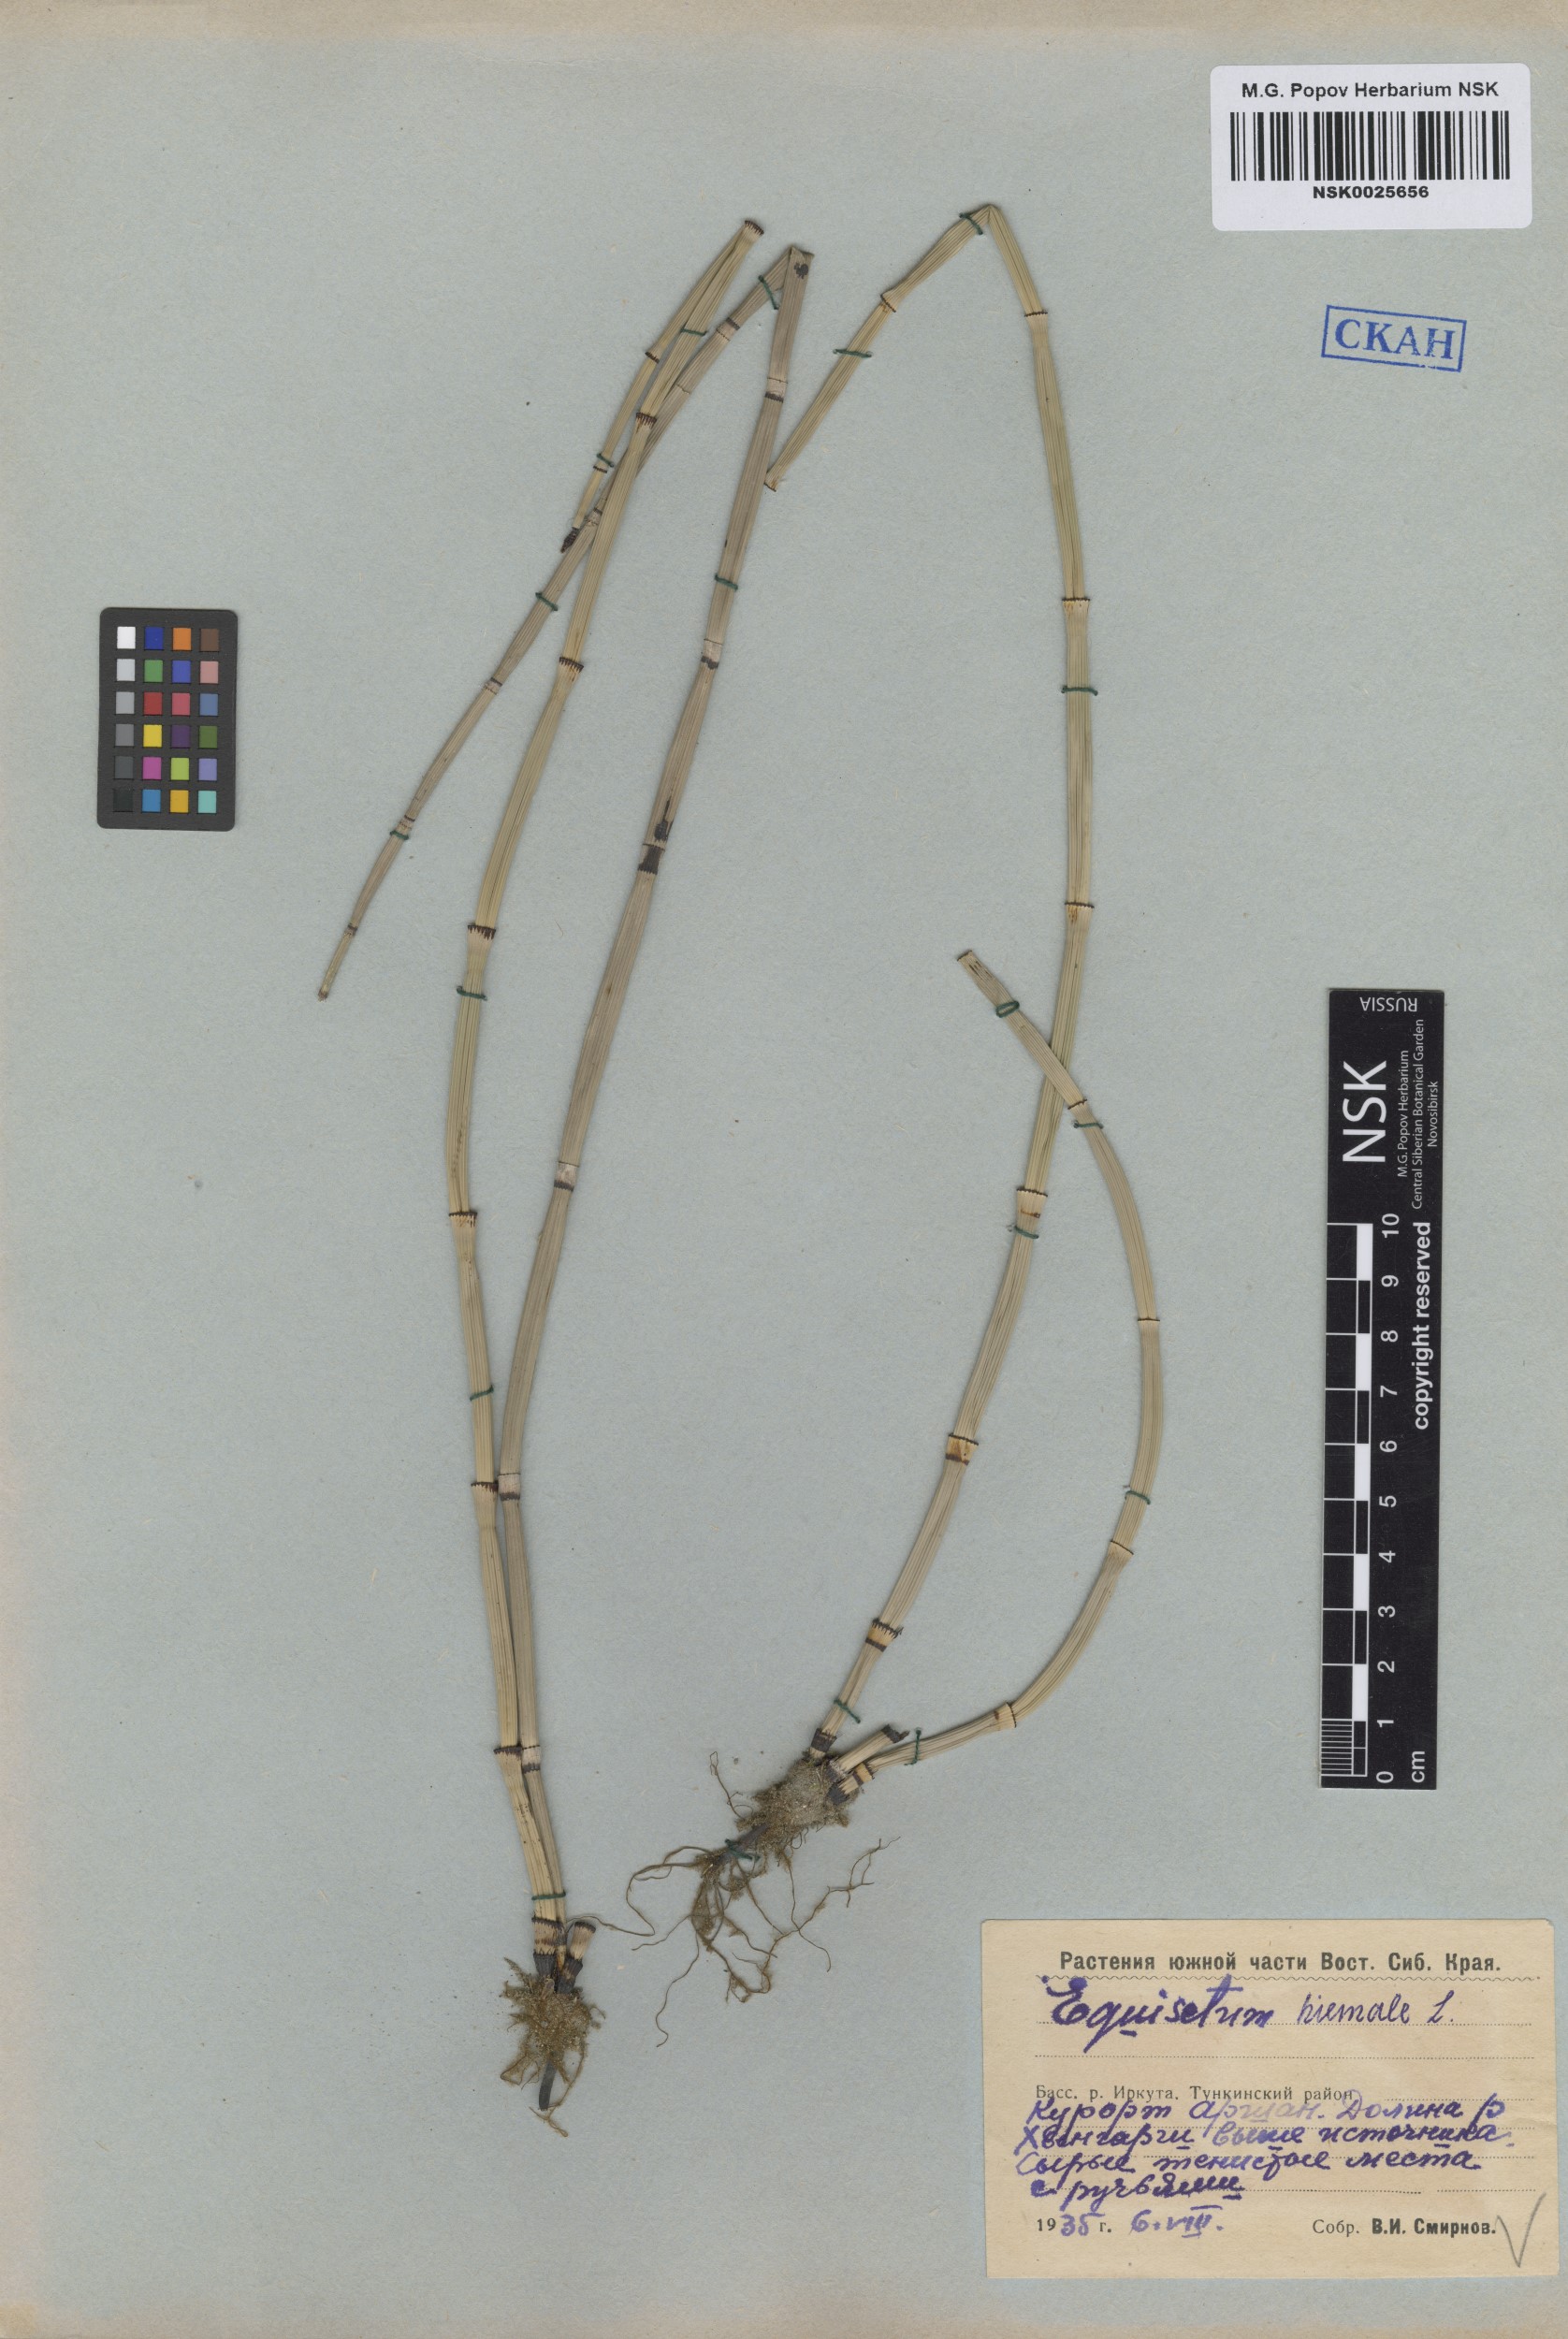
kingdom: Plantae
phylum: Tracheophyta
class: Polypodiopsida
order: Equisetales
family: Equisetaceae
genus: Equisetum
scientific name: Equisetum hyemale
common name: Rough horsetail
